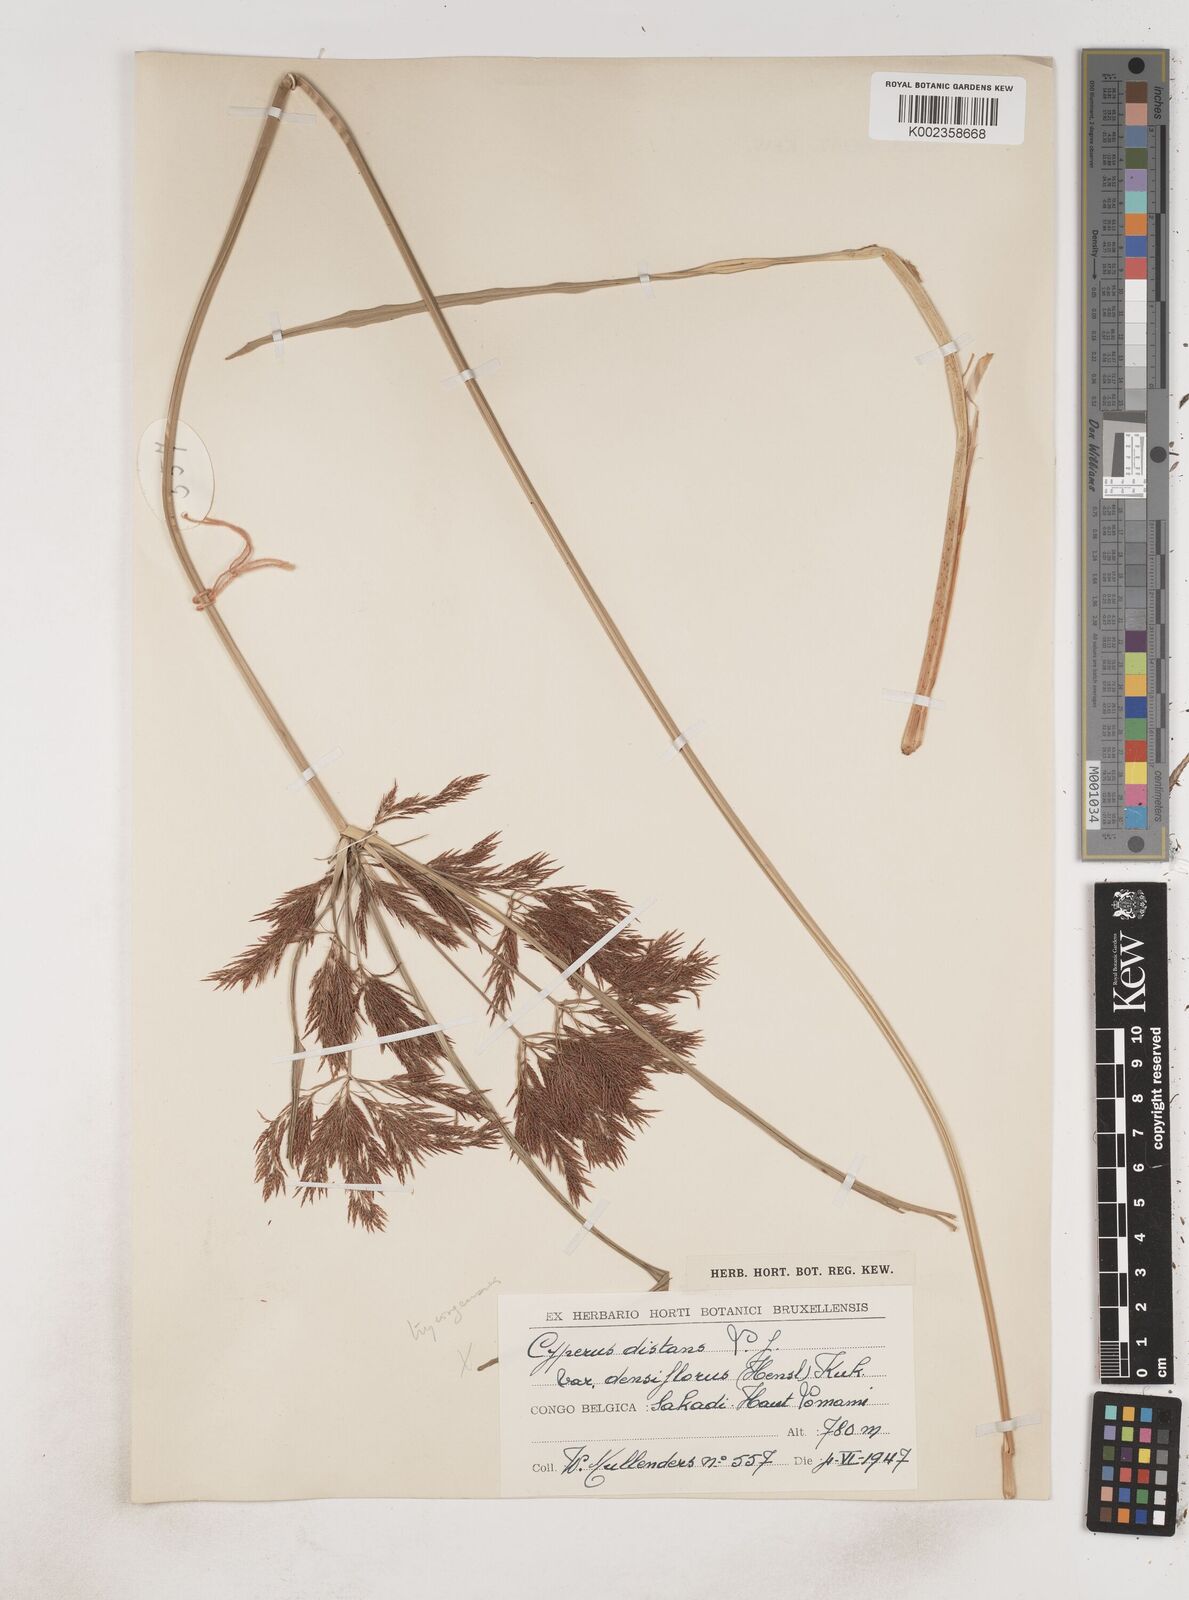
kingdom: Plantae
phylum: Tracheophyta
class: Liliopsida
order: Poales
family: Cyperaceae
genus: Cyperus
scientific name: Cyperus distans
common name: Slender cyperus
